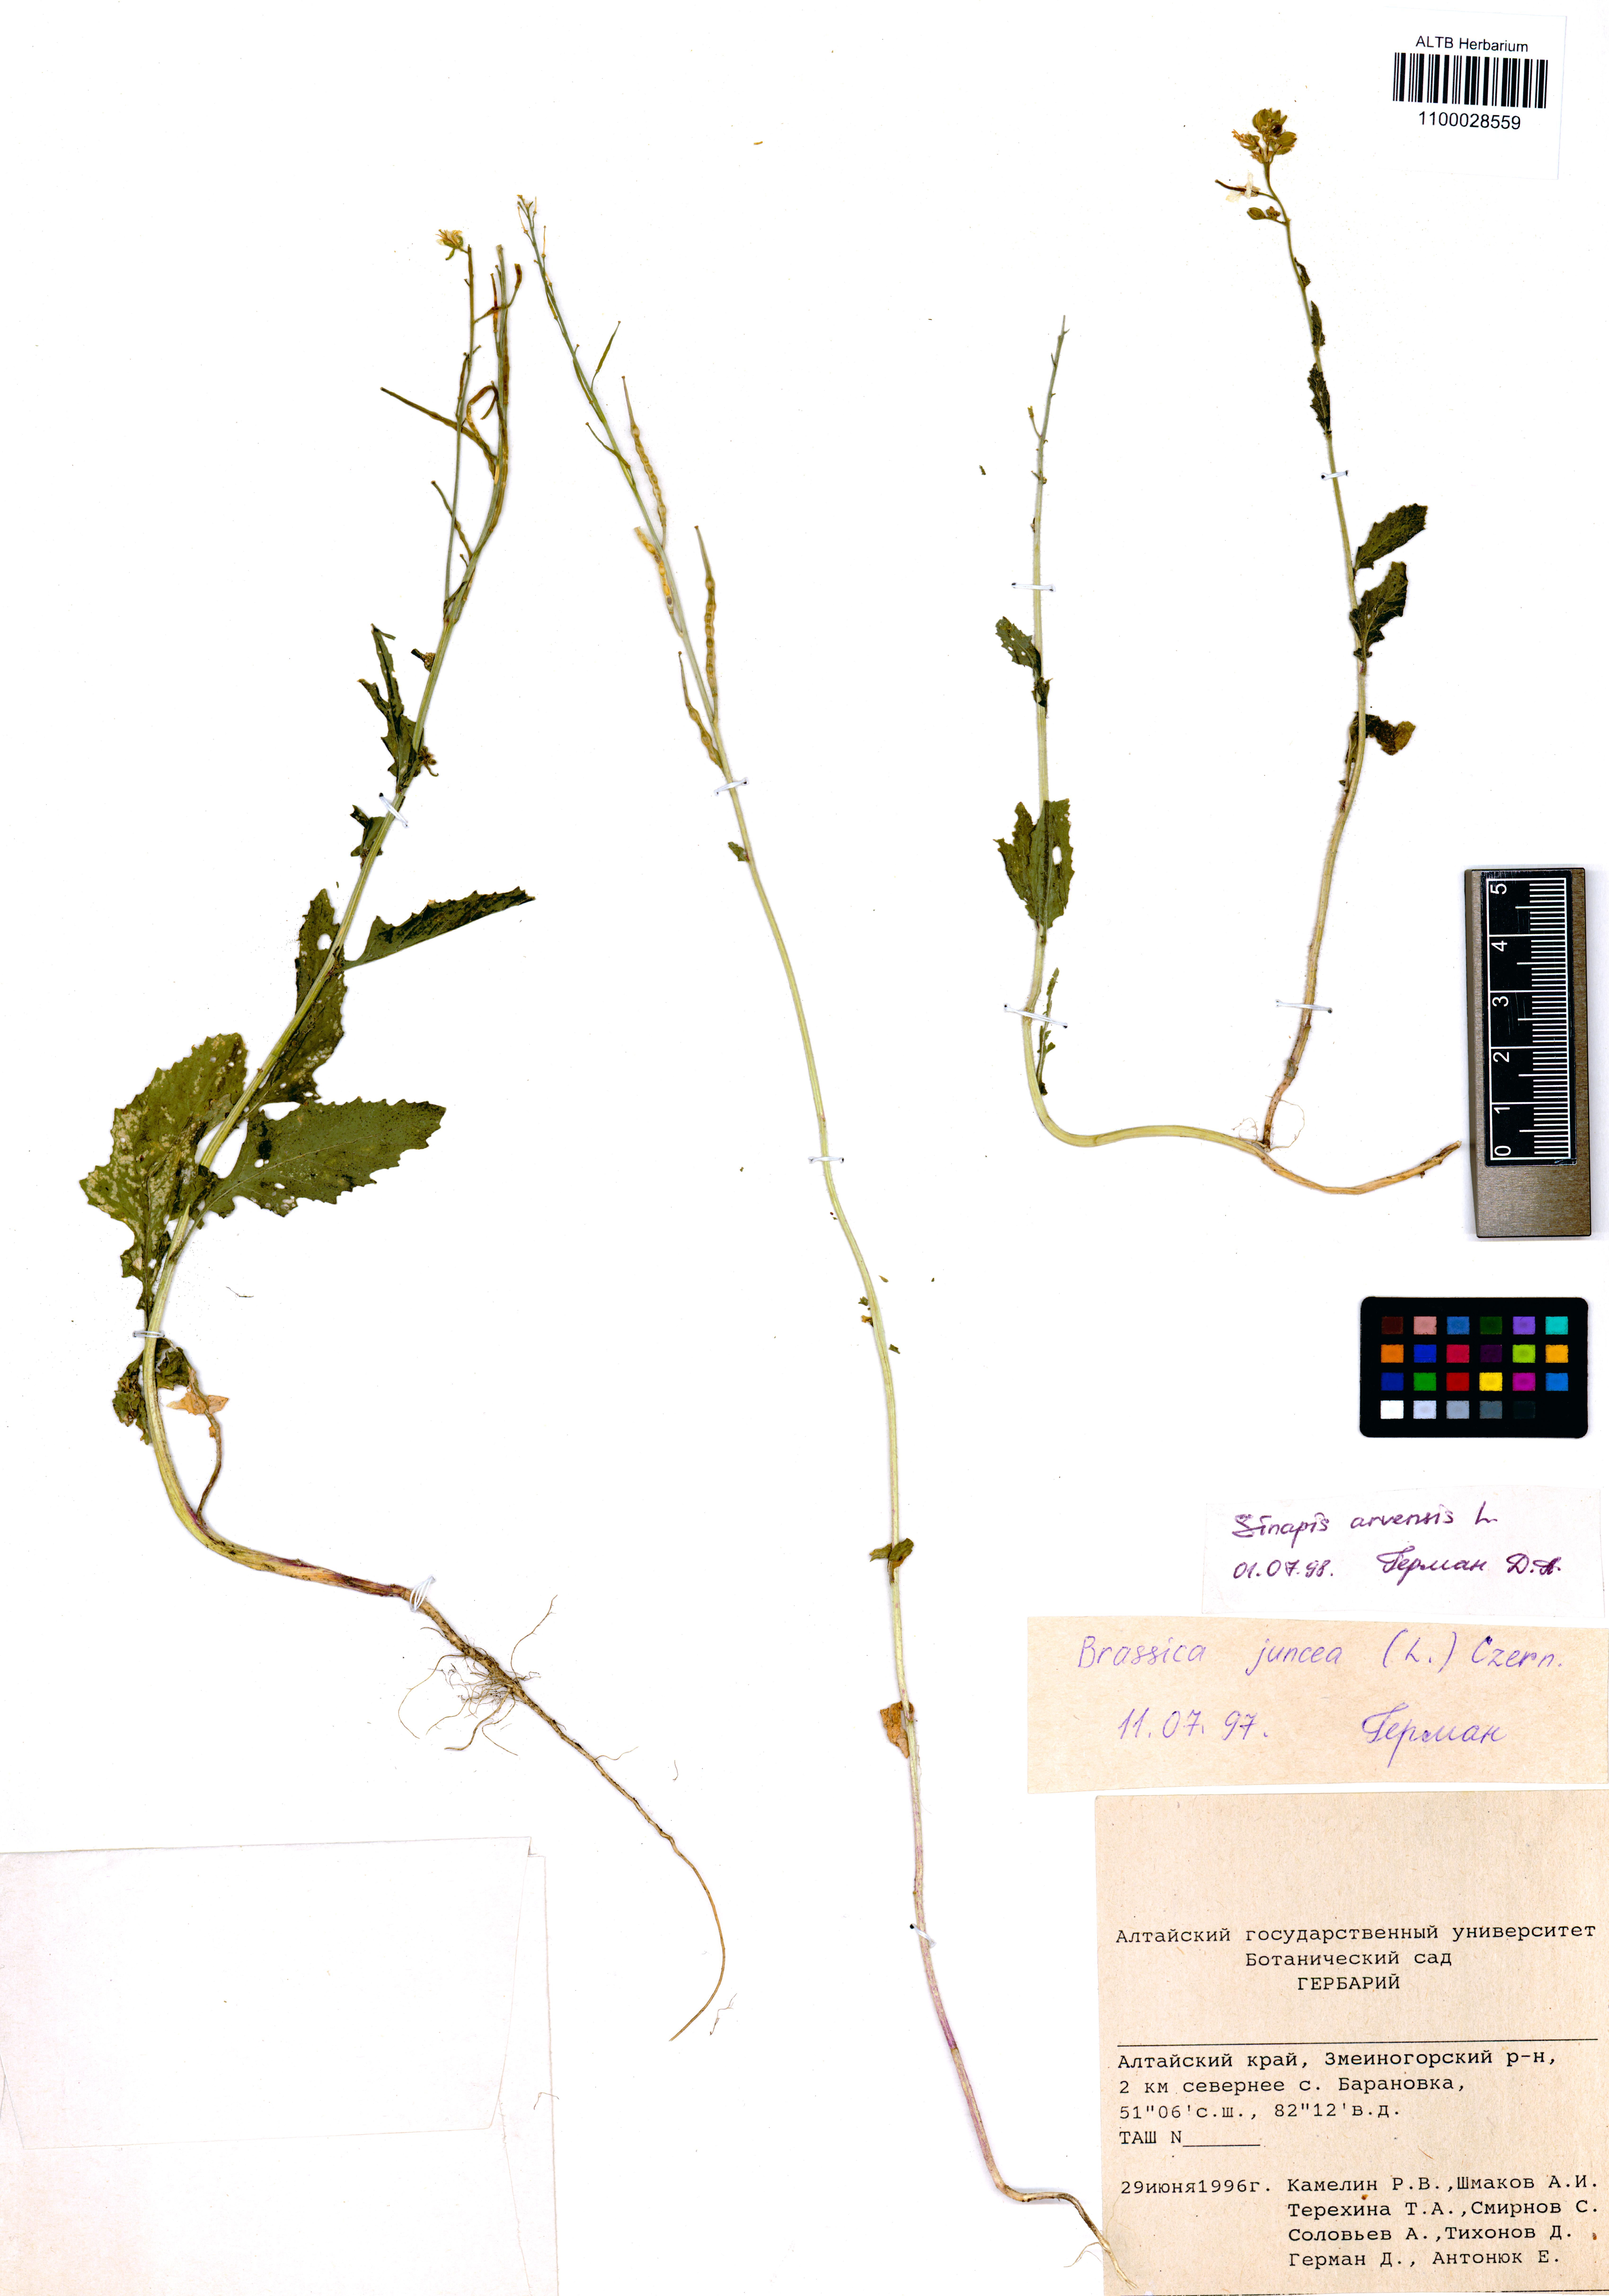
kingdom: Plantae
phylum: Tracheophyta
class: Magnoliopsida
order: Brassicales
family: Brassicaceae
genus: Sinapis
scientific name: Sinapis arvensis
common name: Charlock
